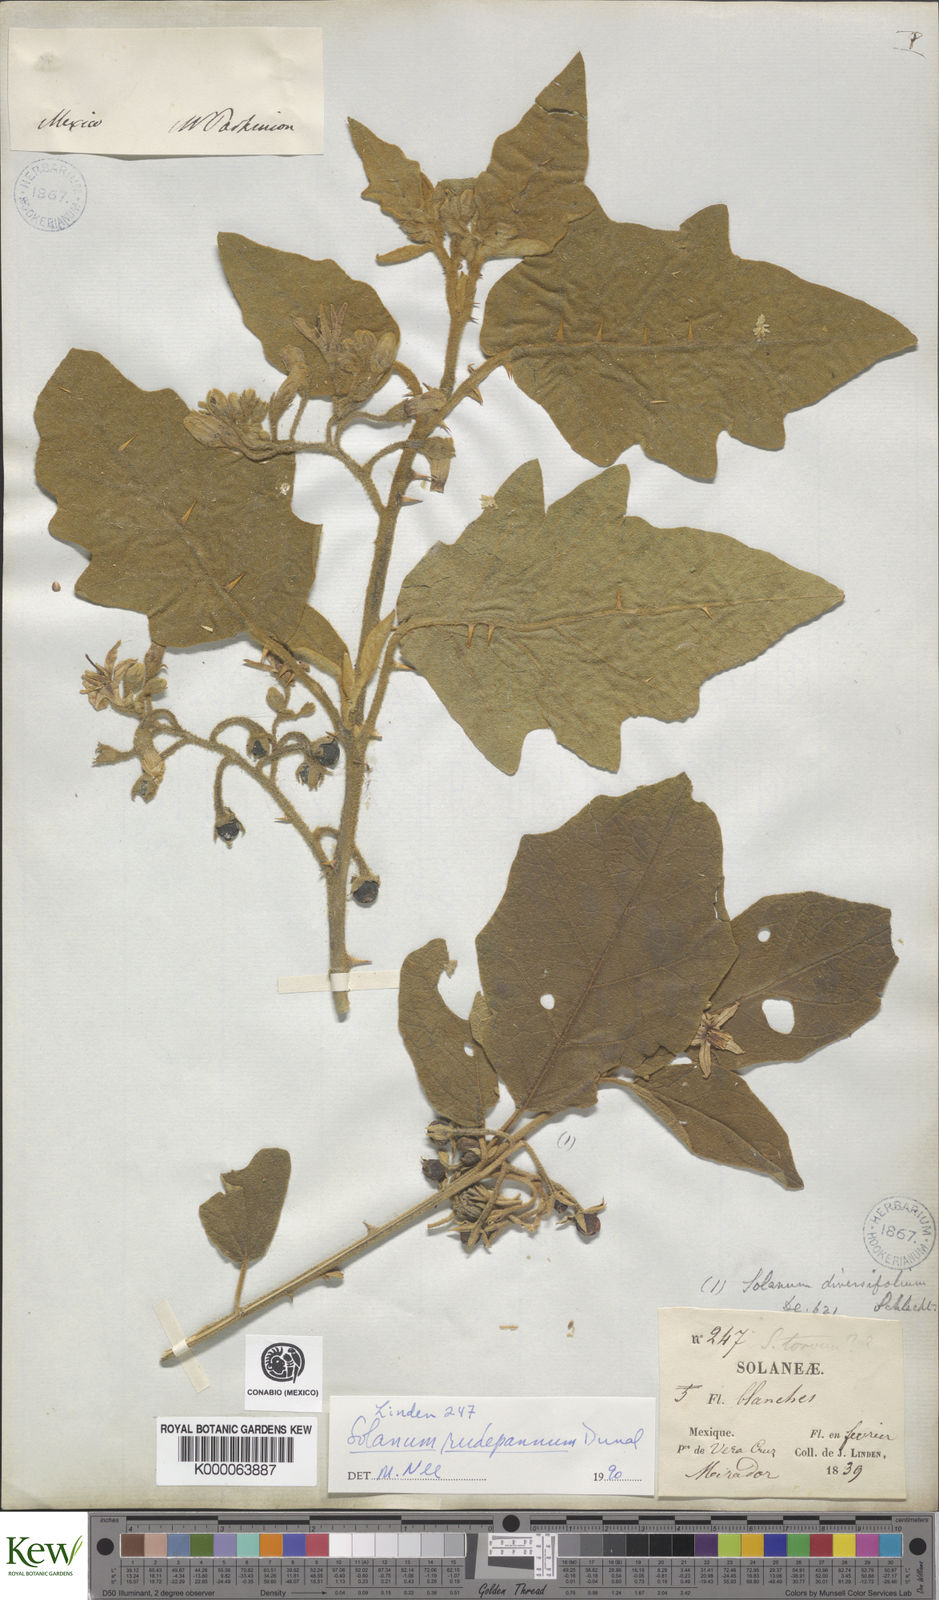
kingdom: Plantae
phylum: Tracheophyta
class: Magnoliopsida
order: Solanales
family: Solanaceae
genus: Solanum
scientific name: Solanum rude-pannum
